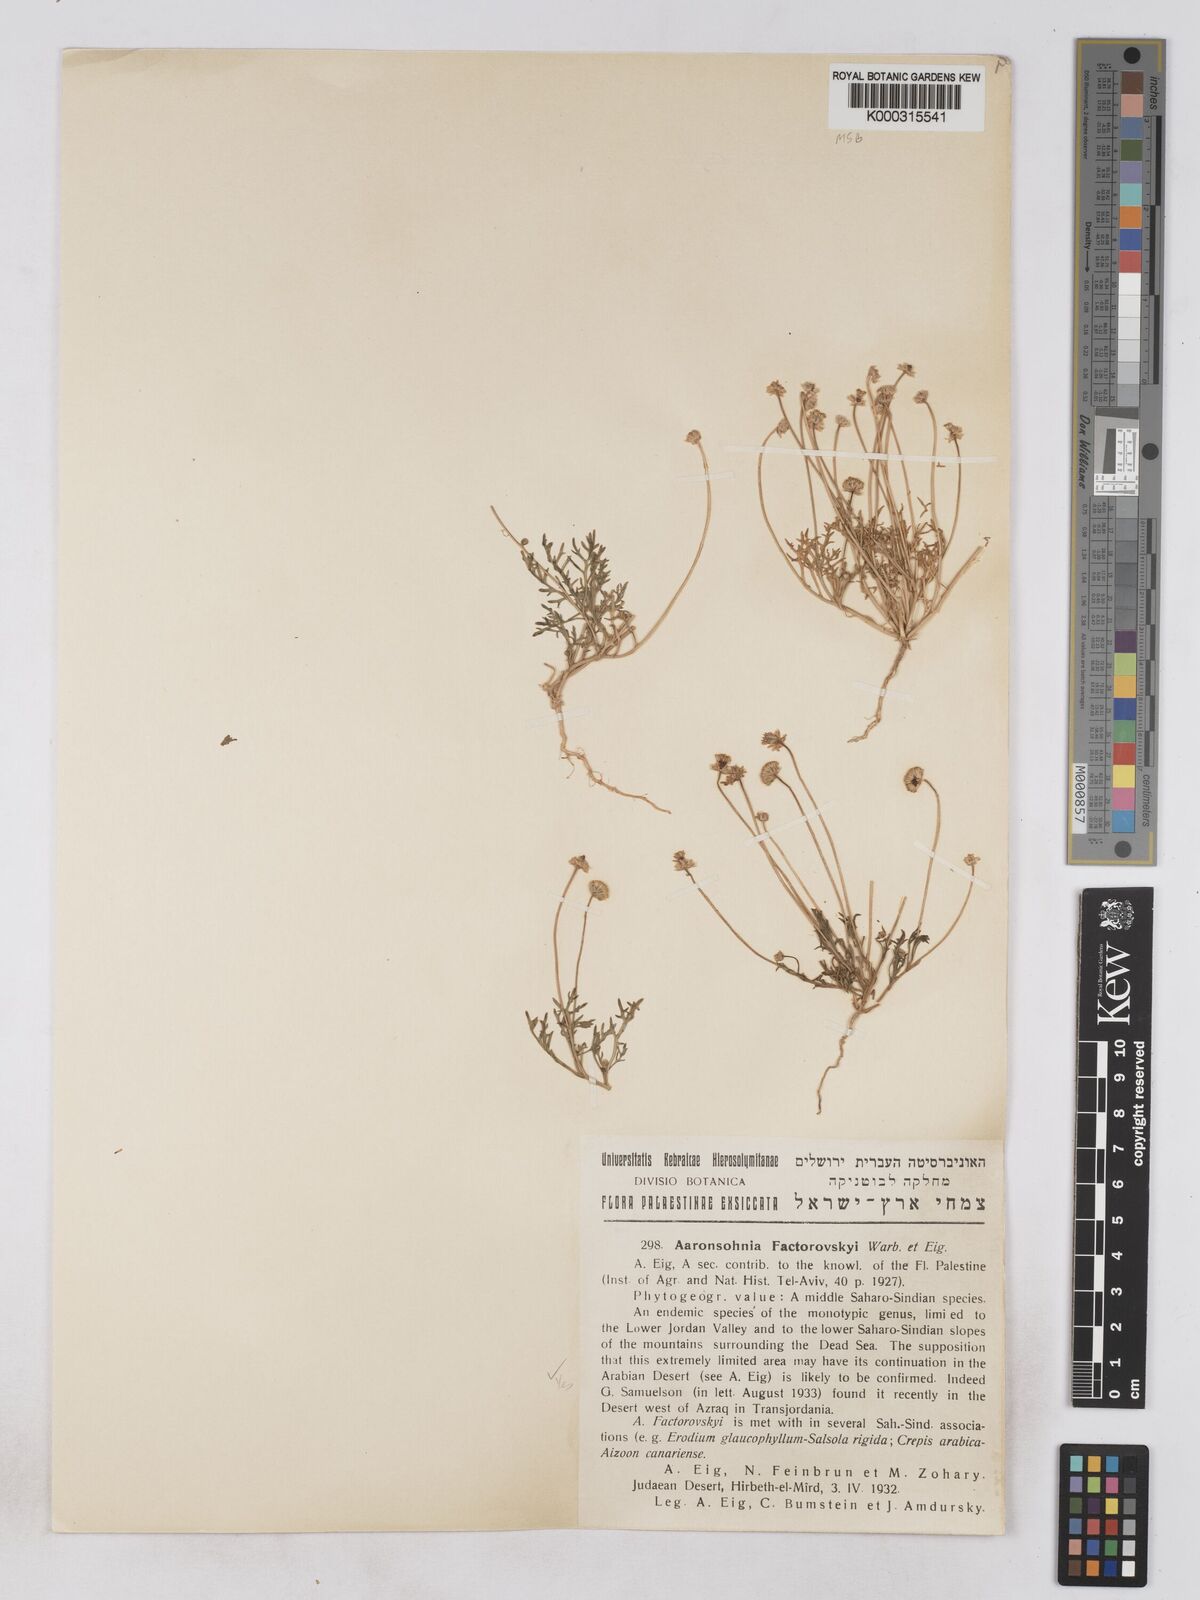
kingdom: Plantae
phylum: Tracheophyta
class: Magnoliopsida
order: Asterales
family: Asteraceae
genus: Otoglyphis
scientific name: Otoglyphis factorovskyi
